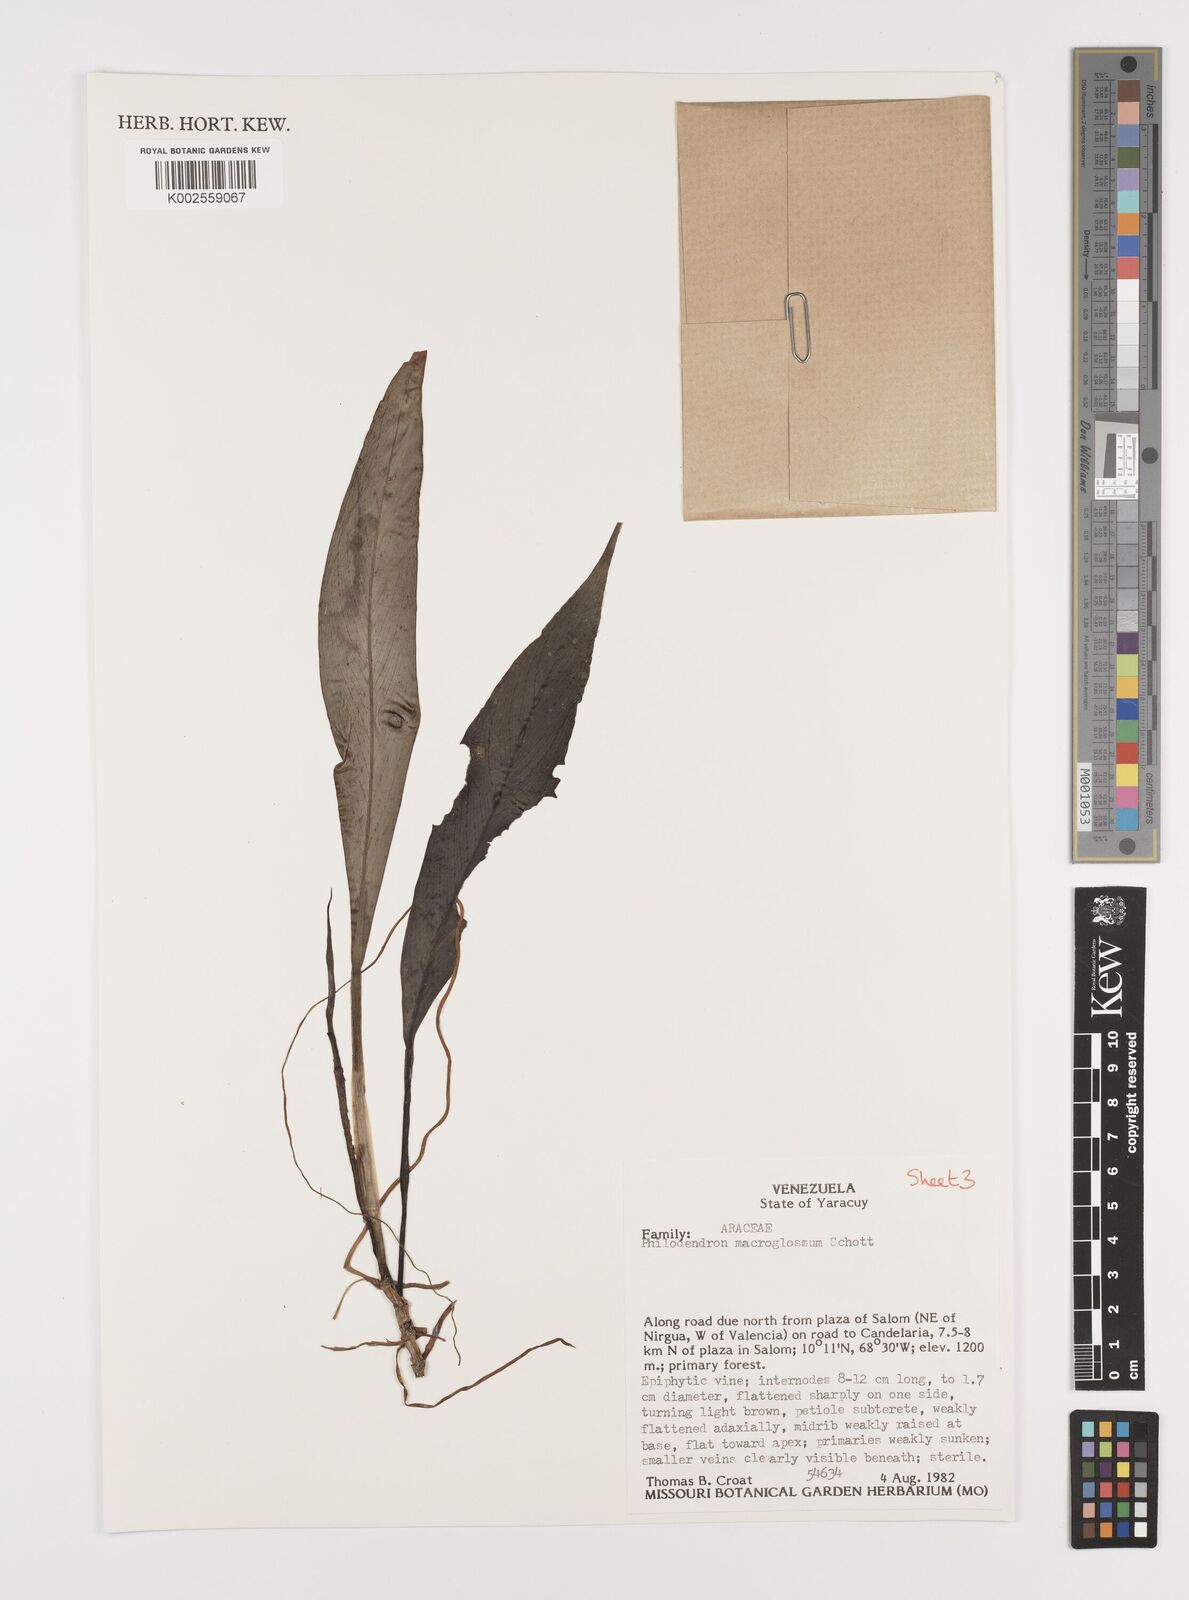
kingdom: Plantae
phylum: Tracheophyta
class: Liliopsida
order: Alismatales
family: Araceae
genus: Philodendron
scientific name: Philodendron macroglossum
